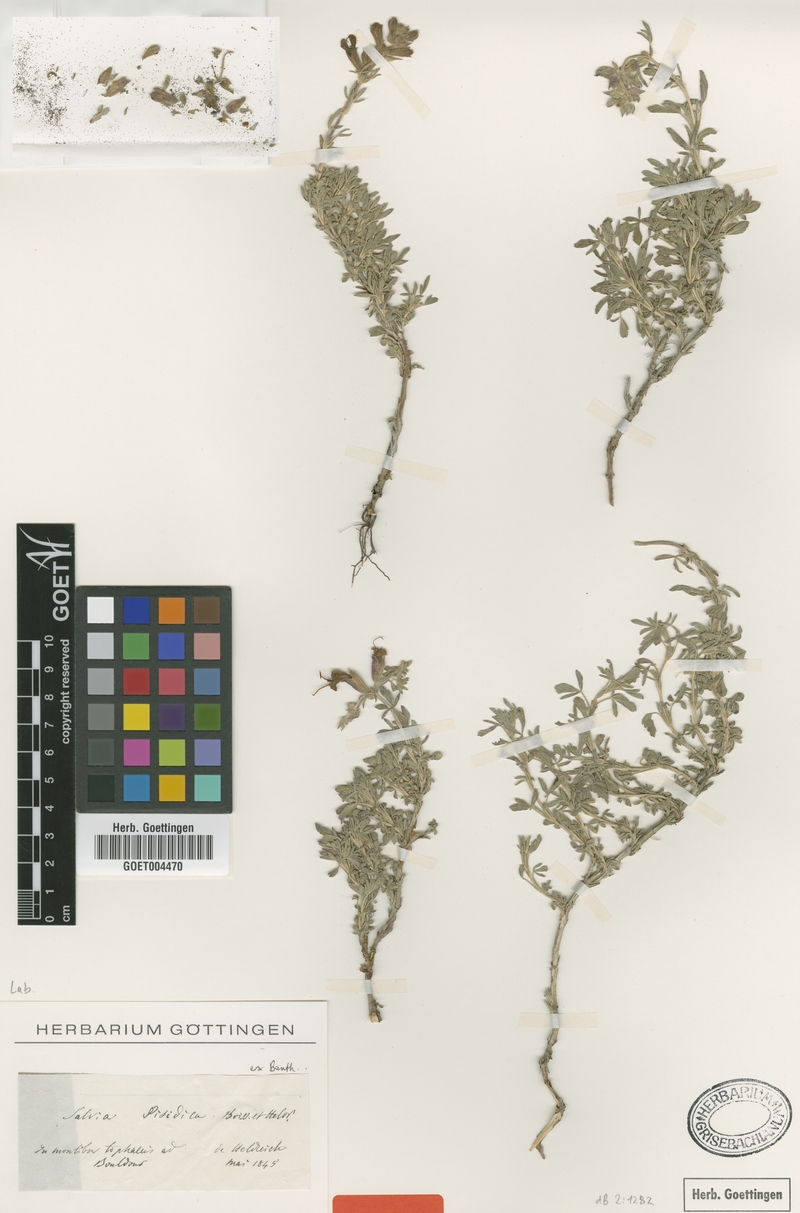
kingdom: Plantae
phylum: Tracheophyta
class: Magnoliopsida
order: Lamiales
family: Lamiaceae
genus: Salvia
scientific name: Salvia pisidica
